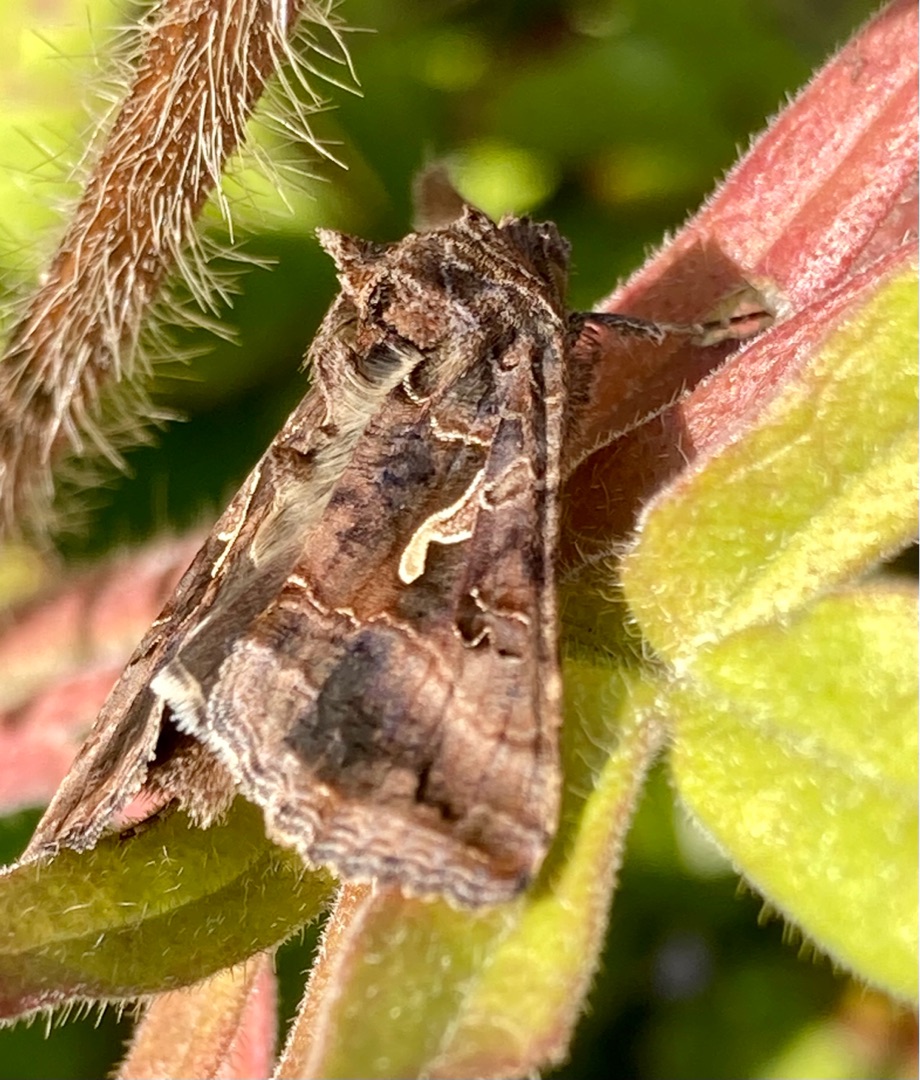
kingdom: Animalia
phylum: Arthropoda
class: Insecta
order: Lepidoptera
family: Noctuidae
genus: Autographa
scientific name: Autographa gamma
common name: Gammaugle
